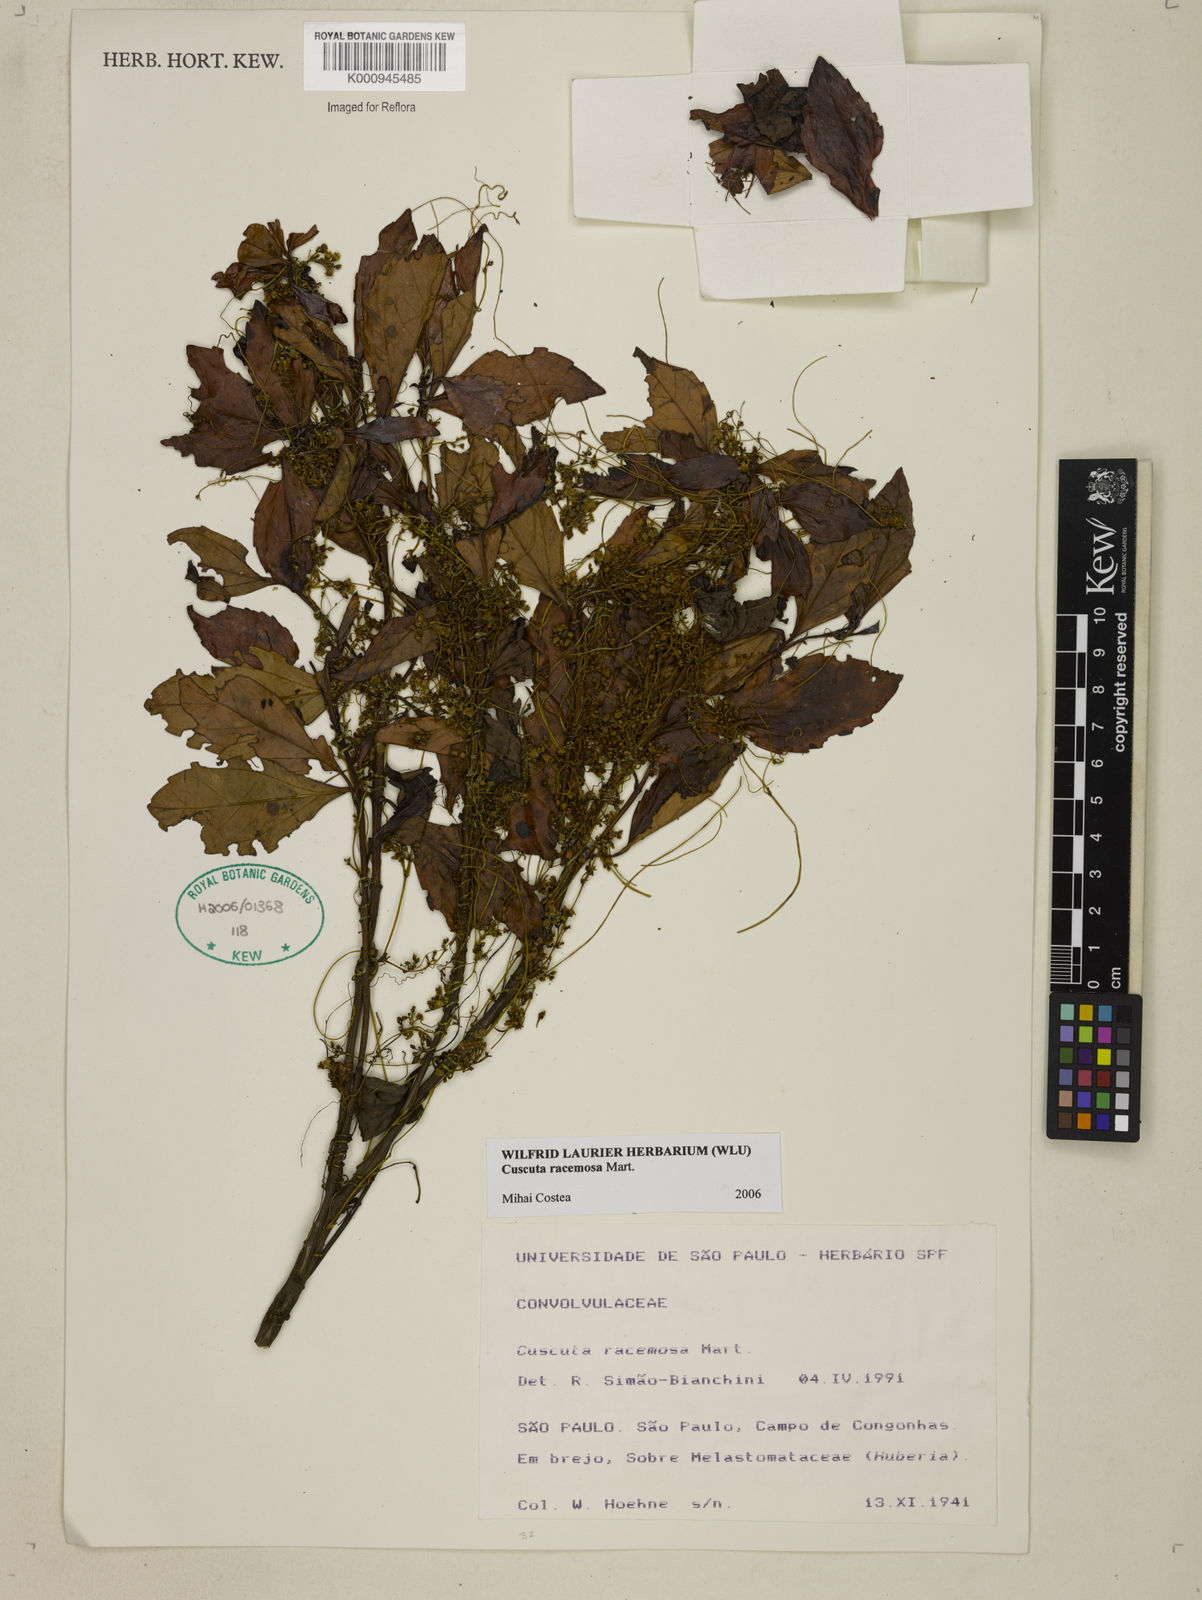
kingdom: Plantae
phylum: Tracheophyta
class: Magnoliopsida
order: Solanales
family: Convolvulaceae
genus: Cuscuta
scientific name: Cuscuta racemosa
